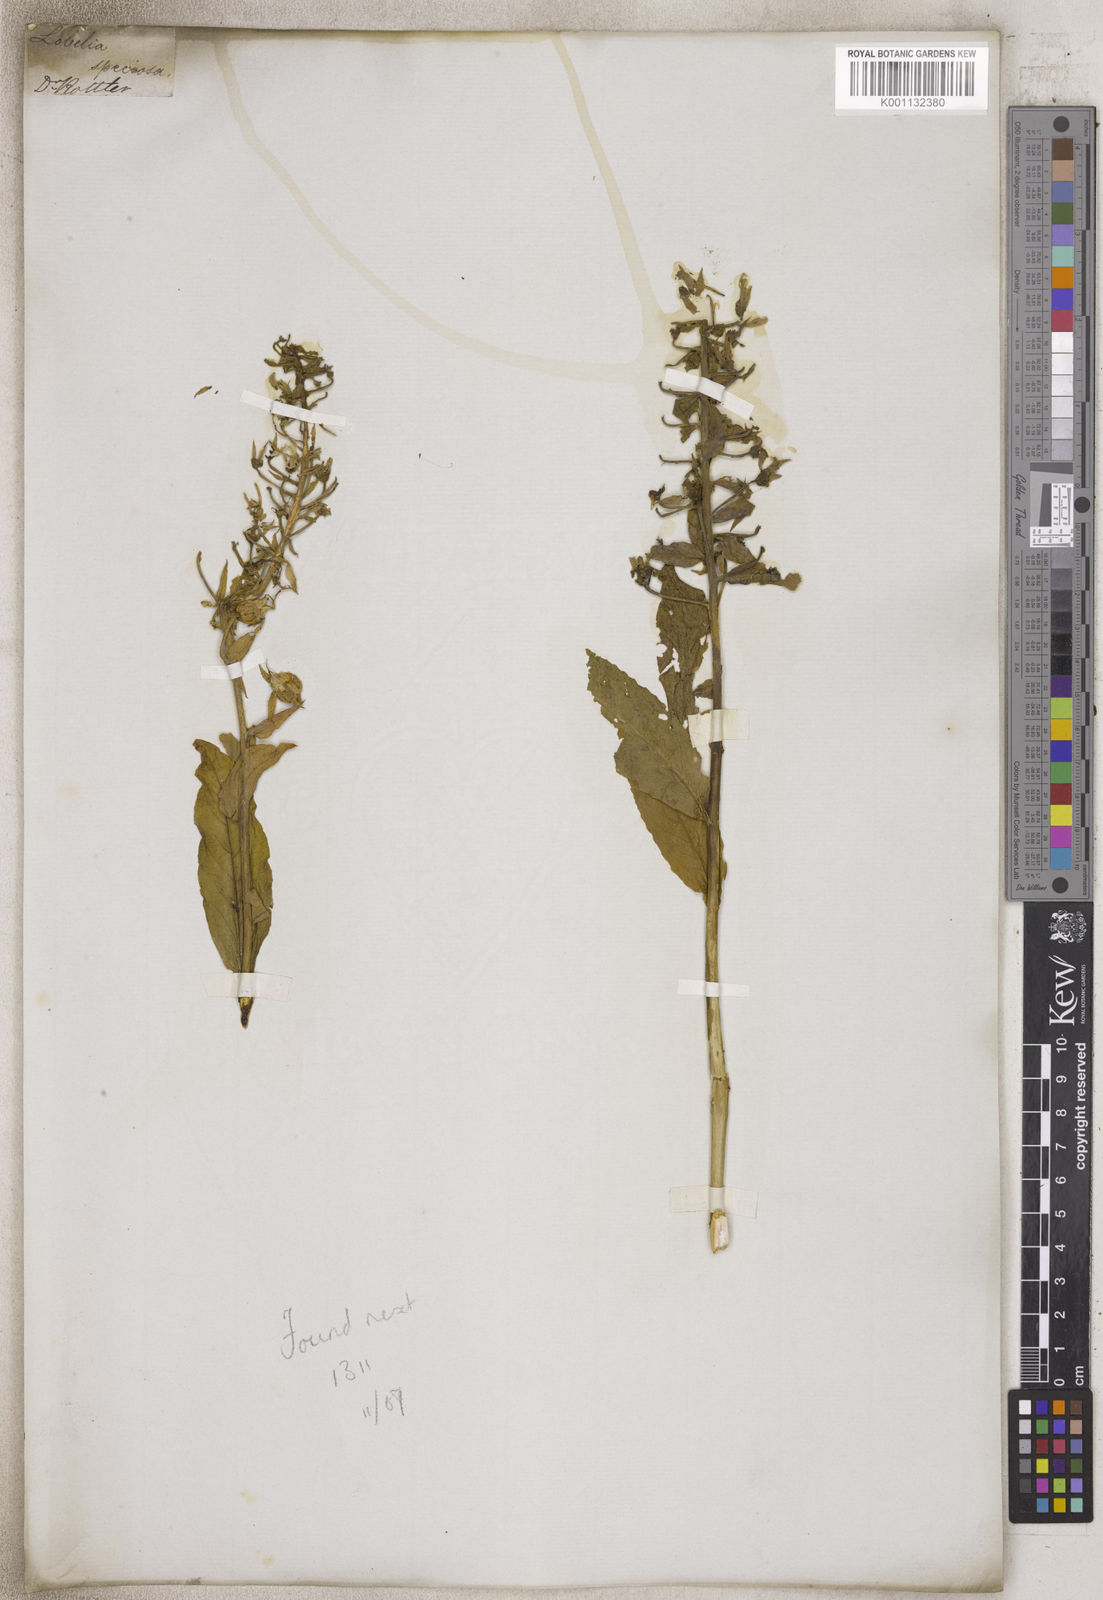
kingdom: Plantae
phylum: Tracheophyta
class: Magnoliopsida
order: Asterales
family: Campanulaceae
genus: Lobelia
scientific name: Lobelia
